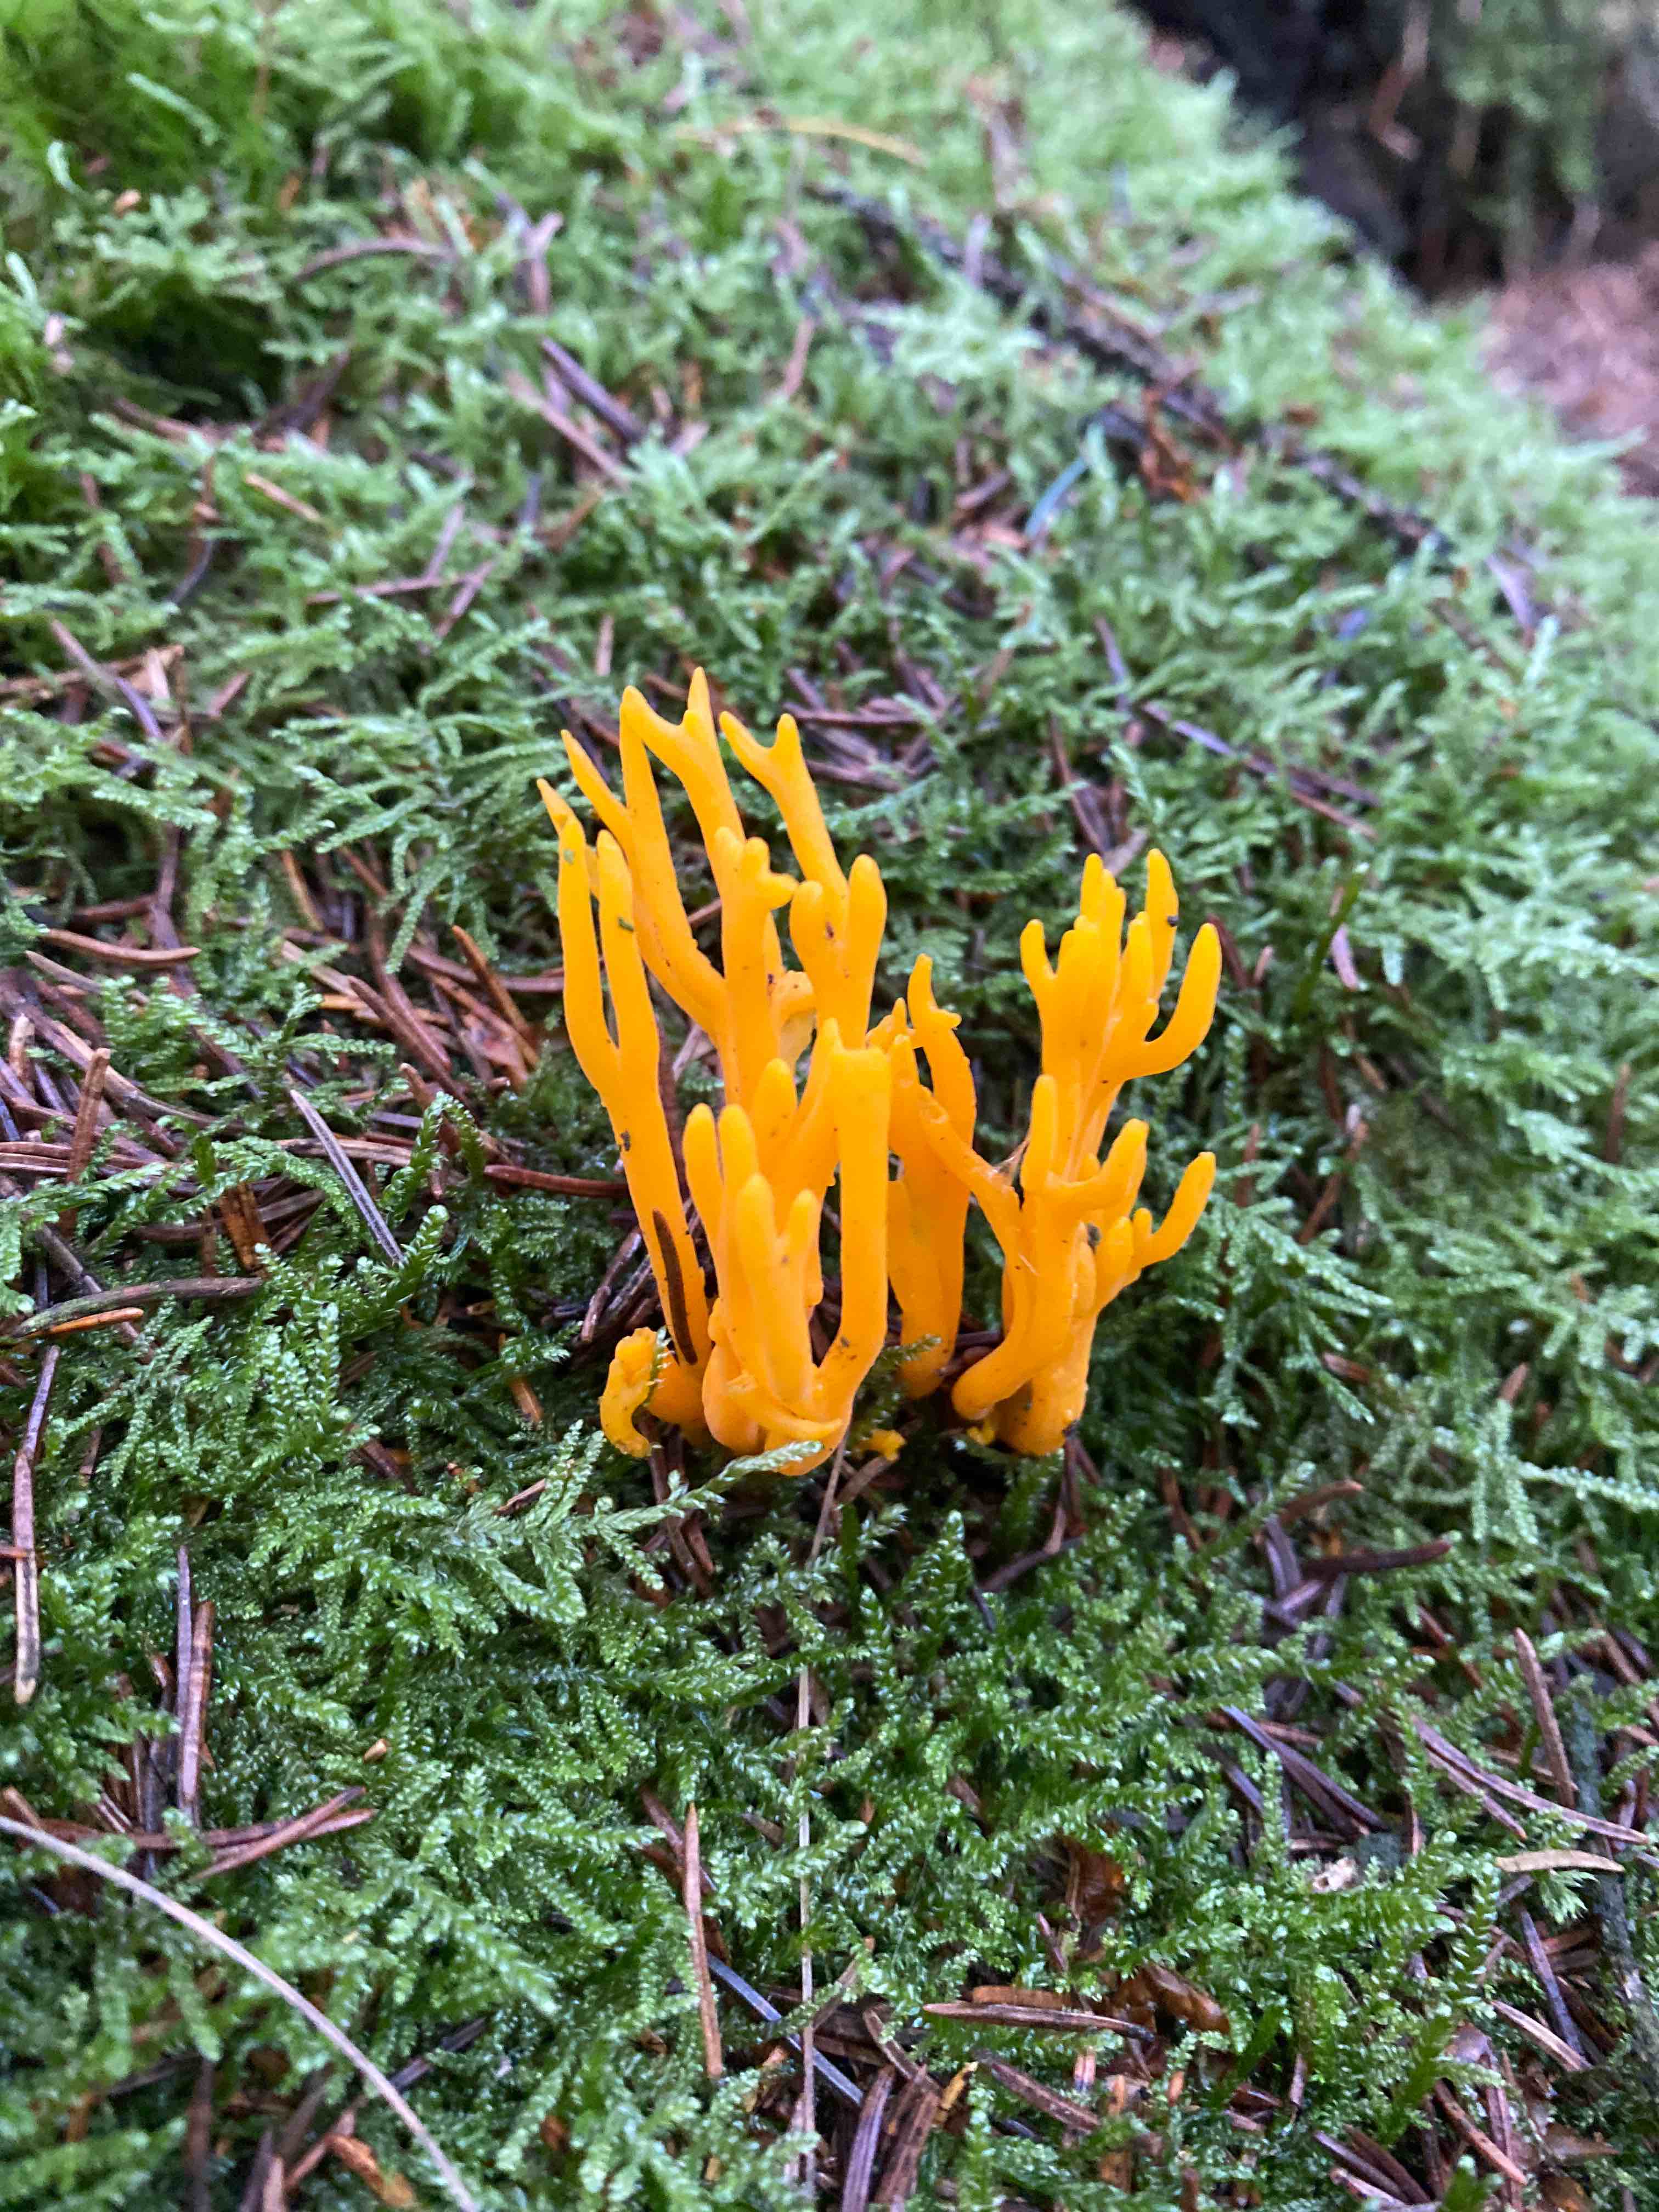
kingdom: Fungi
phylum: Basidiomycota
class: Dacrymycetes
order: Dacrymycetales
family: Dacrymycetaceae
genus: Calocera
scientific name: Calocera viscosa
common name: almindelig guldgaffel
